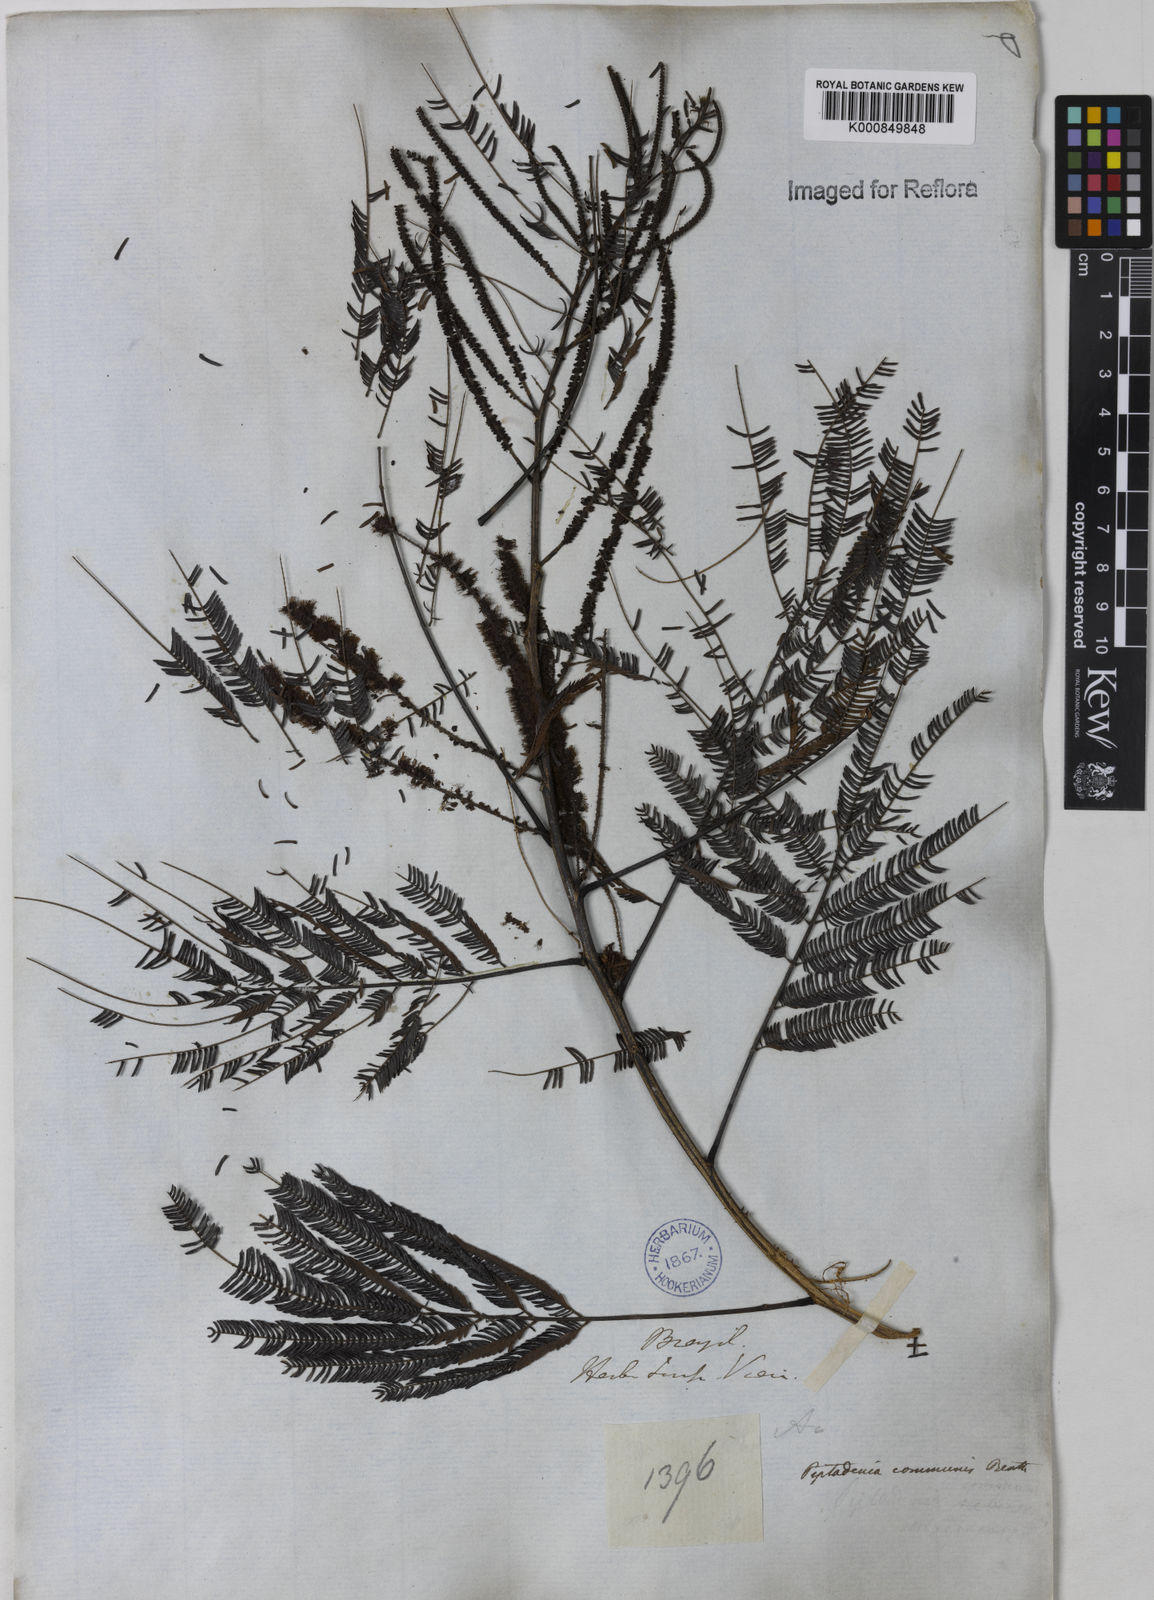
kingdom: Plantae
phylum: Tracheophyta
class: Magnoliopsida
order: Fabales
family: Fabaceae
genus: Piptadenia
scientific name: Piptadenia gonoacantha
